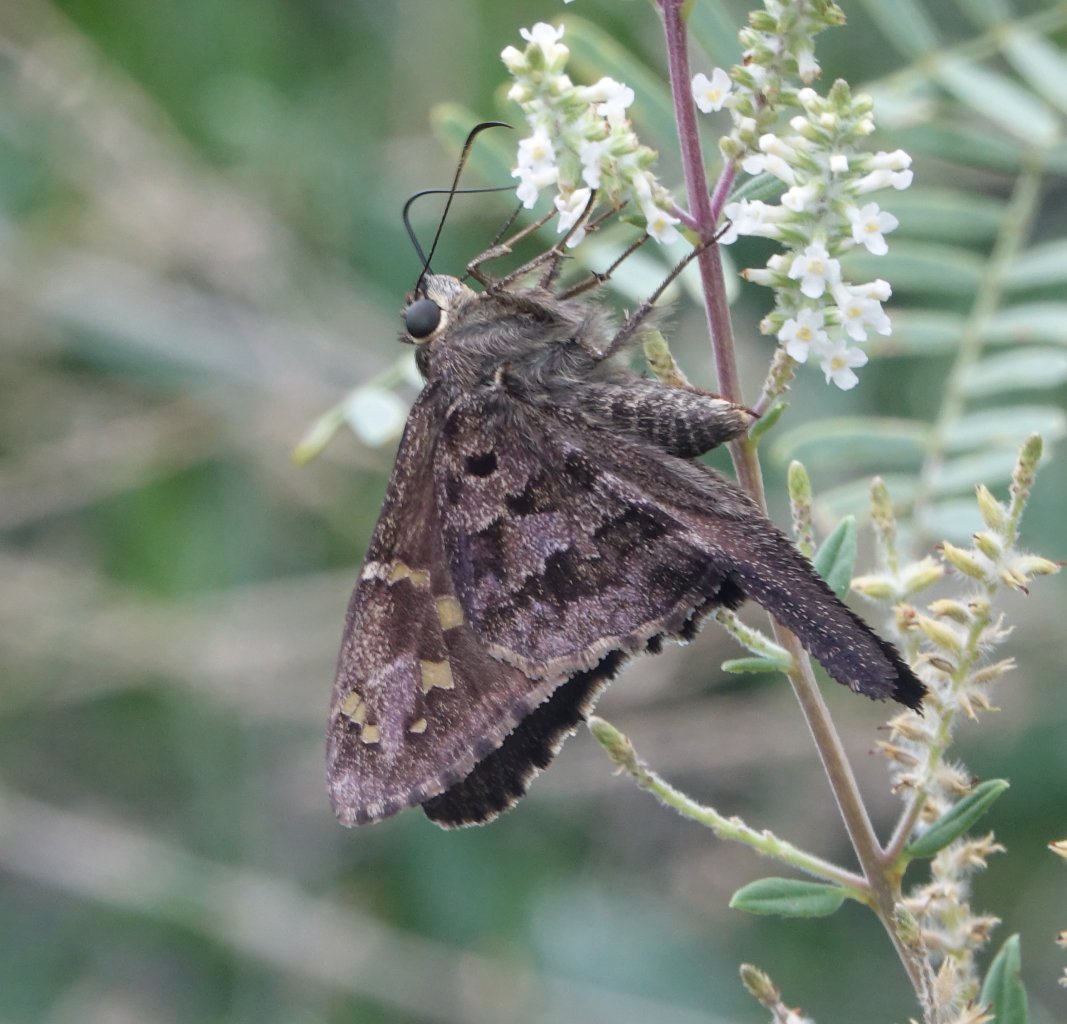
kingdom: Animalia
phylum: Arthropoda
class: Insecta
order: Lepidoptera
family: Hesperiidae
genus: Urbanus
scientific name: Urbanus dorantes
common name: Dorantes Longtail
